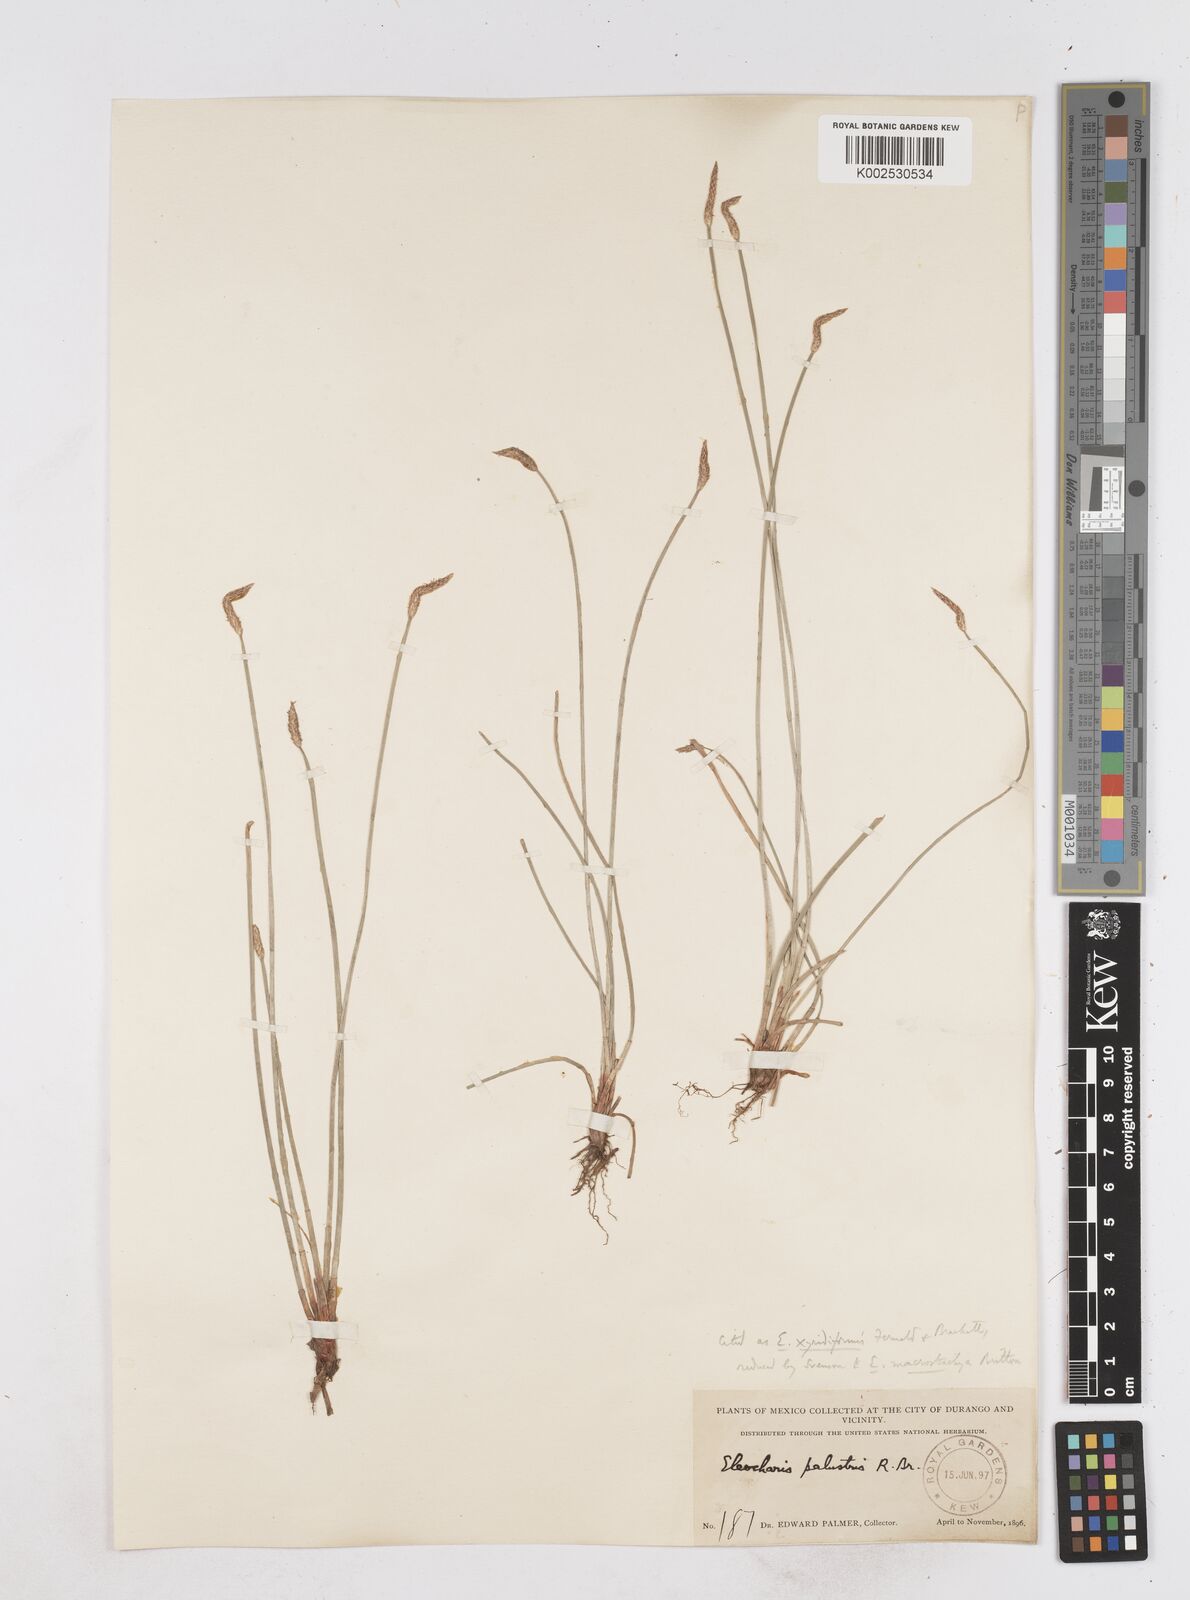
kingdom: Plantae
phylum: Tracheophyta
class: Liliopsida
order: Poales
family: Cyperaceae
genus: Eleocharis
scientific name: Eleocharis macrostachya
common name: Pale spikerush
